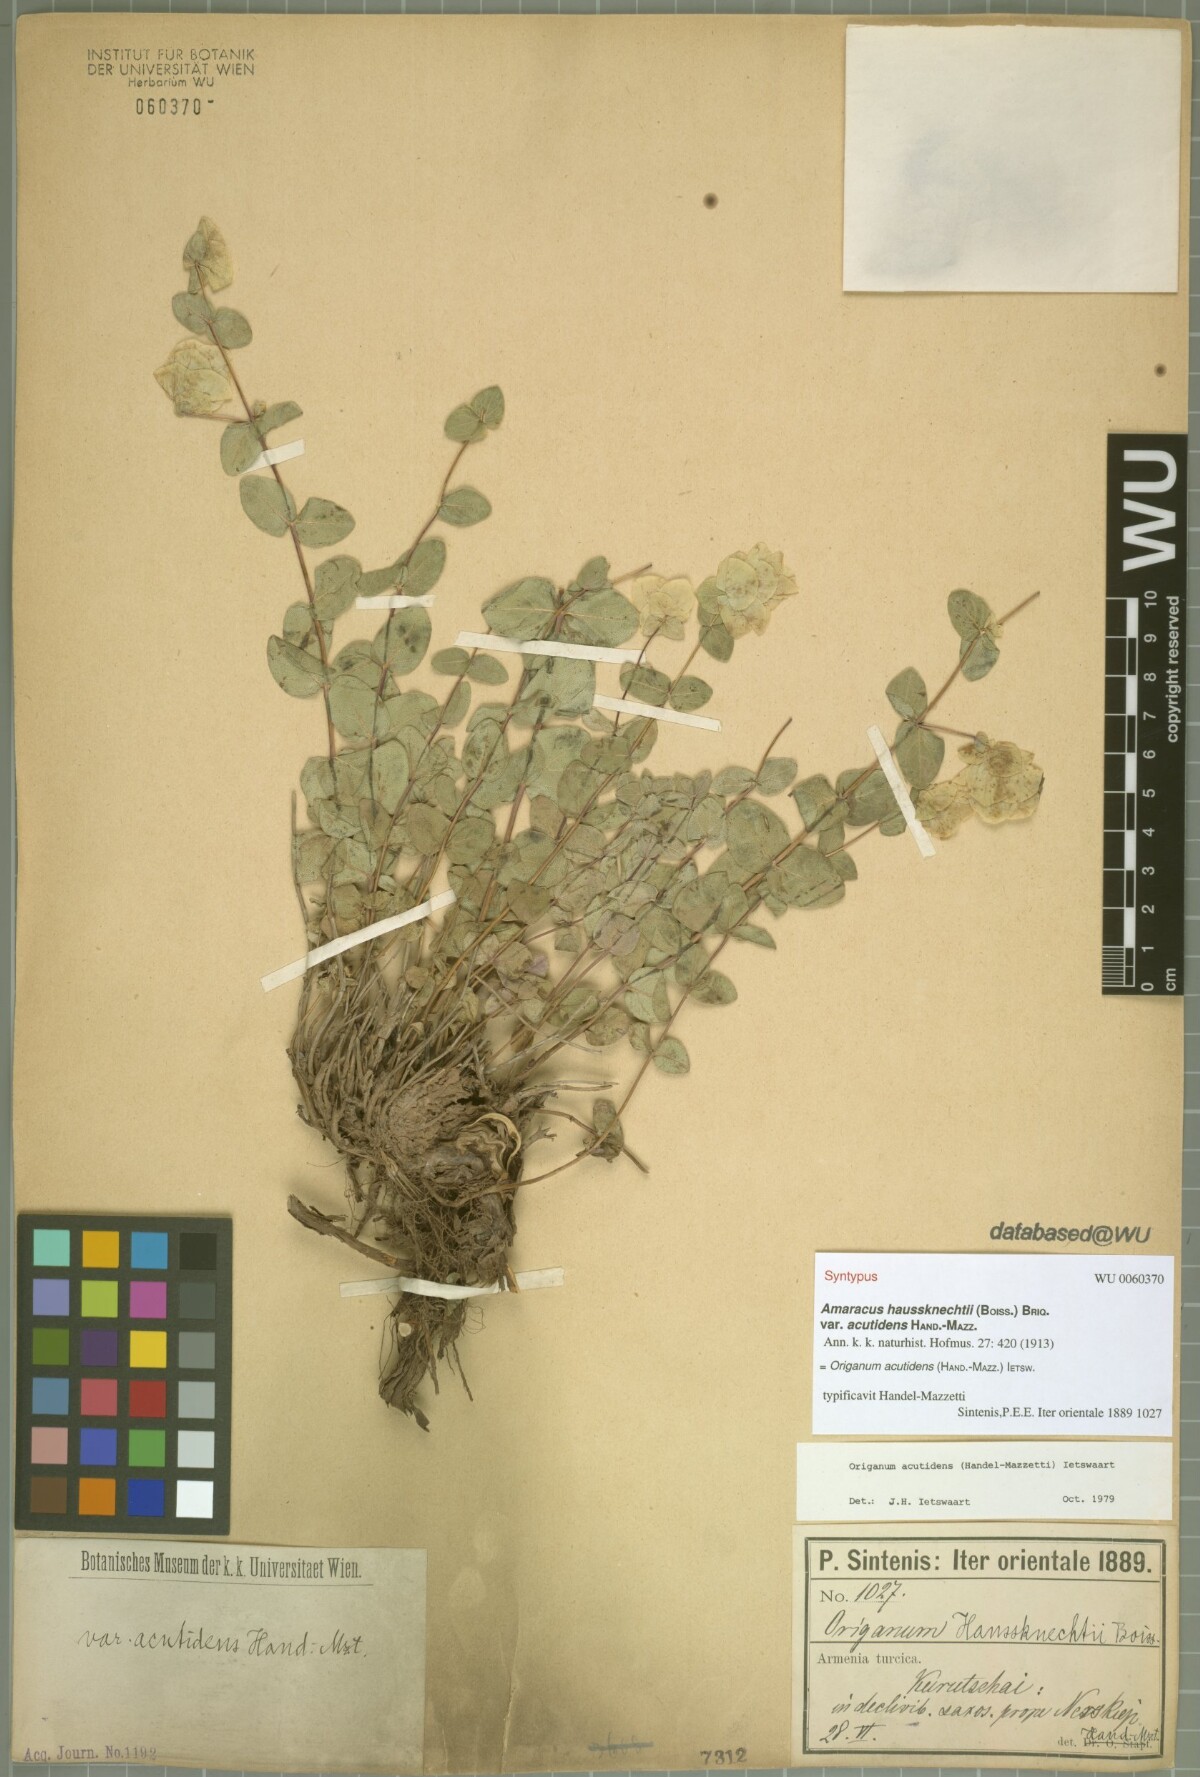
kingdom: Plantae
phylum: Tracheophyta
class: Magnoliopsida
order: Lamiales
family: Lamiaceae
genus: Origanum
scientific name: Origanum acutidens
